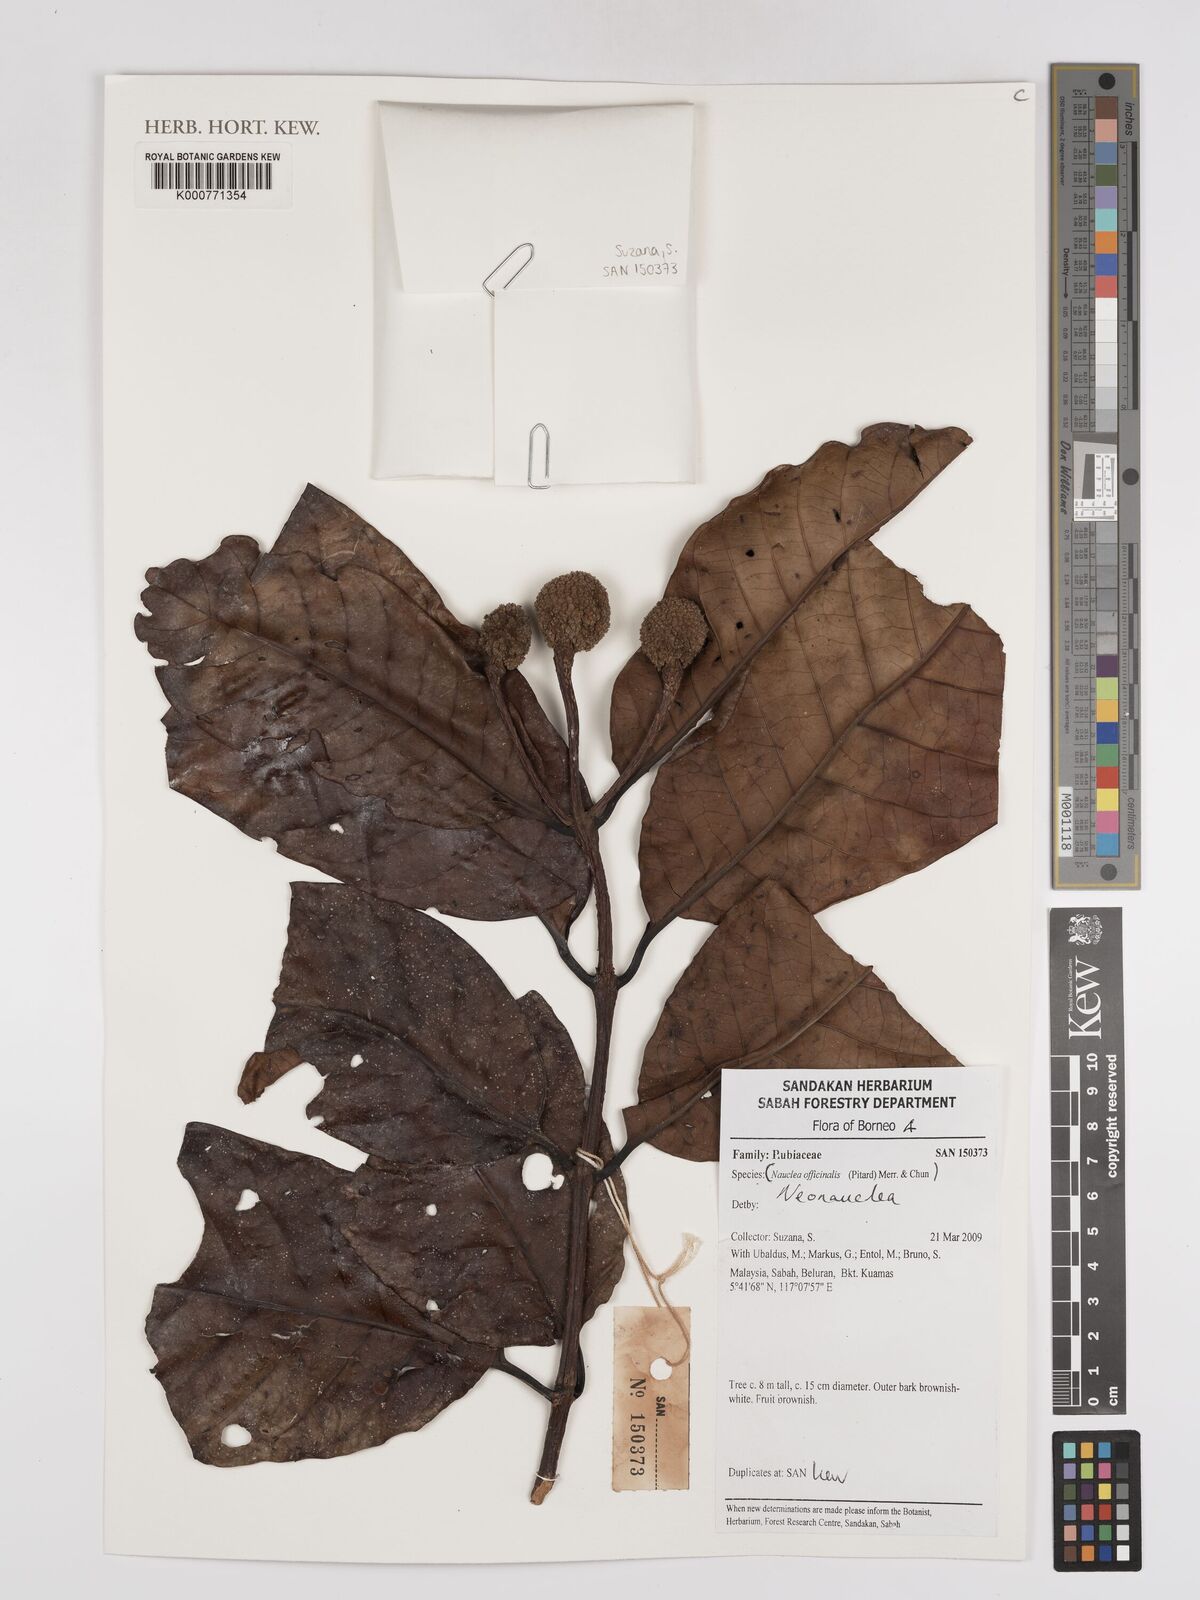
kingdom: Plantae
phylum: Tracheophyta
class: Magnoliopsida
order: Gentianales
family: Rubiaceae
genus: Neonauclea
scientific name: Neonauclea
